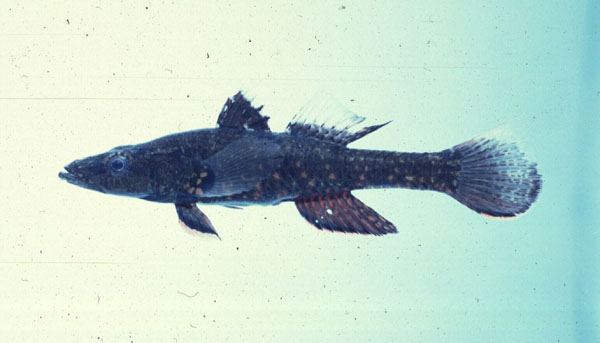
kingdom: Animalia
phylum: Chordata
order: Perciformes
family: Eleotridae
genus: Butis
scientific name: Butis butis
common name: Duckbill sleeper
